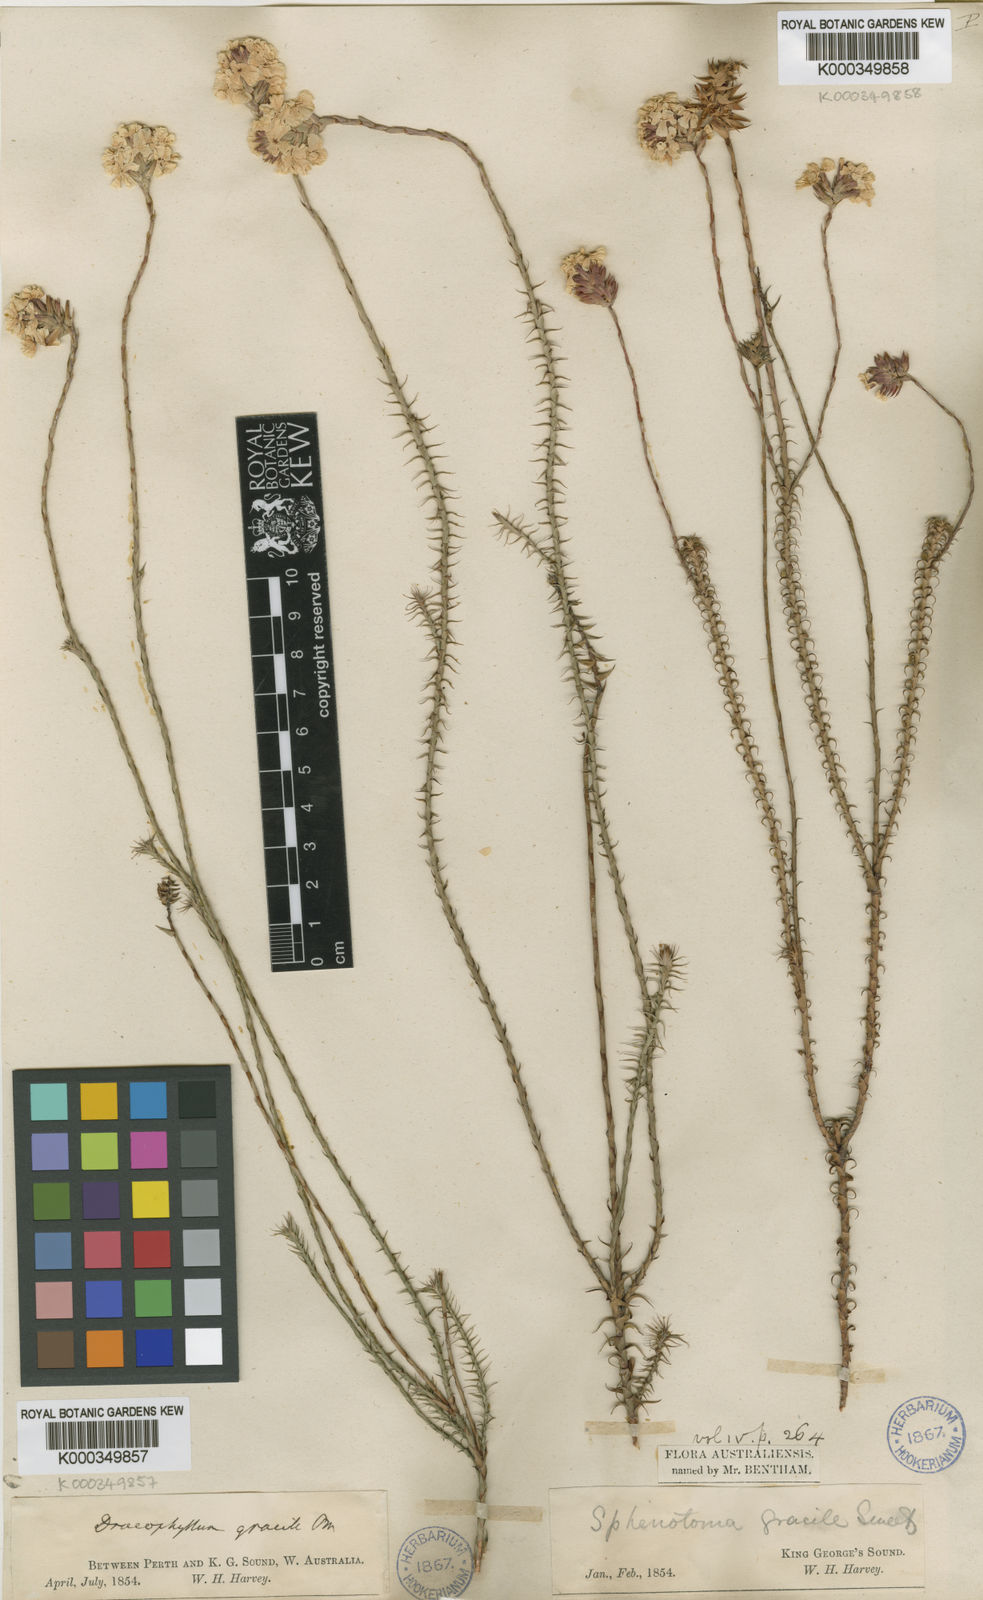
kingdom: Plantae
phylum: Tracheophyta
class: Magnoliopsida
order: Ericales
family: Ericaceae
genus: Dracophyllum
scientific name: Dracophyllum cosmelioides
